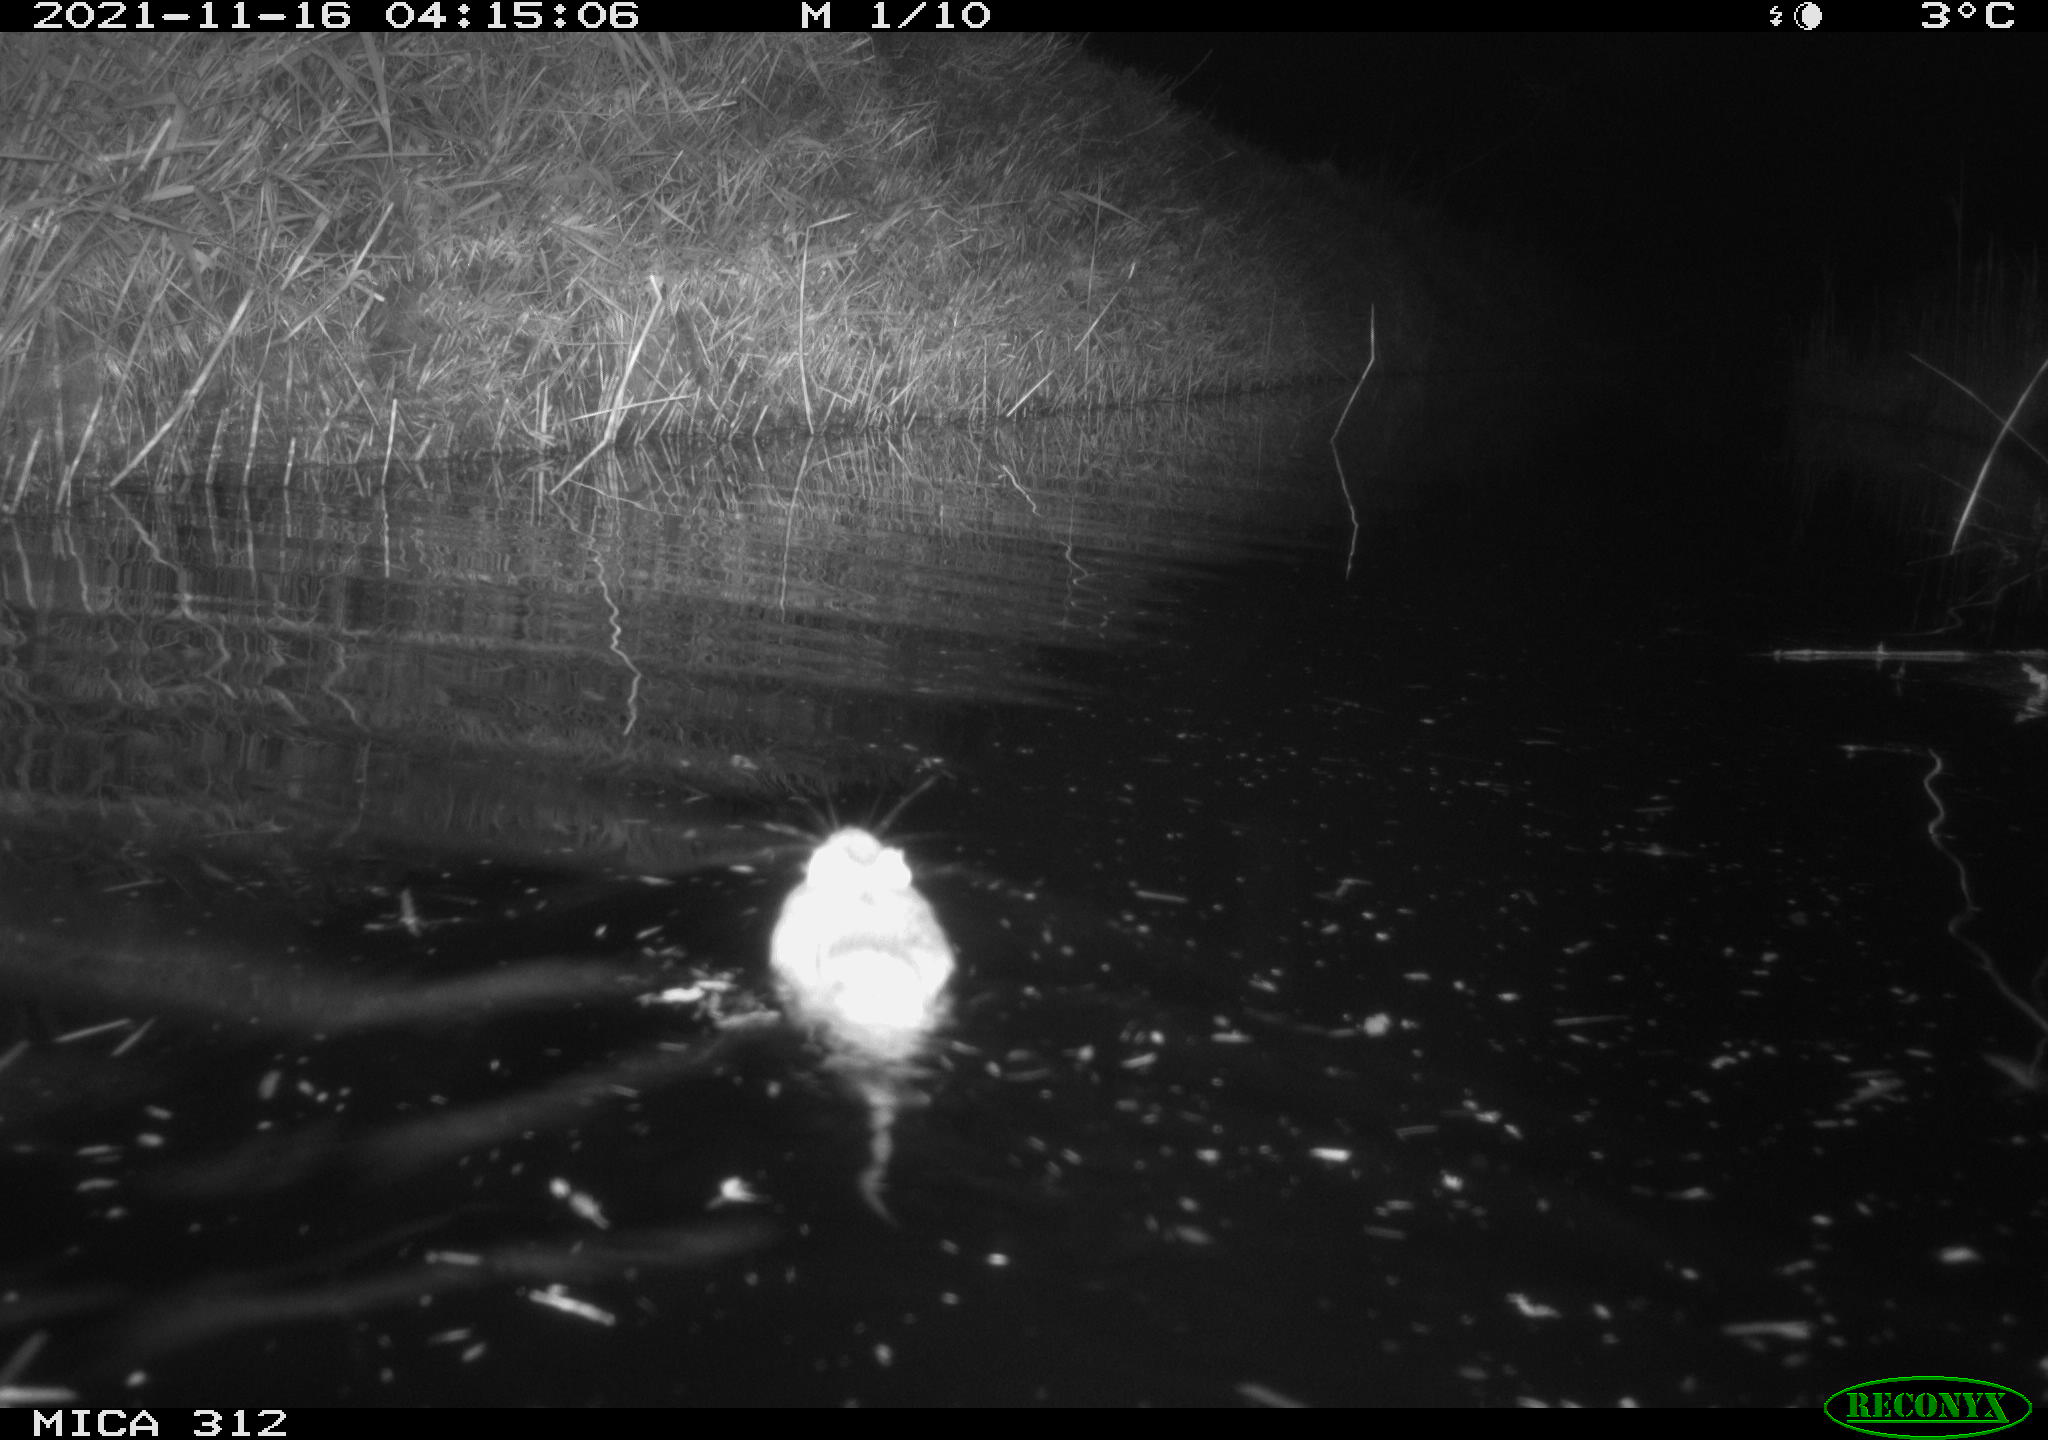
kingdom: Animalia
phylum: Chordata
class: Mammalia
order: Rodentia
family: Muridae
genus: Rattus
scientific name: Rattus norvegicus
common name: Brown rat
